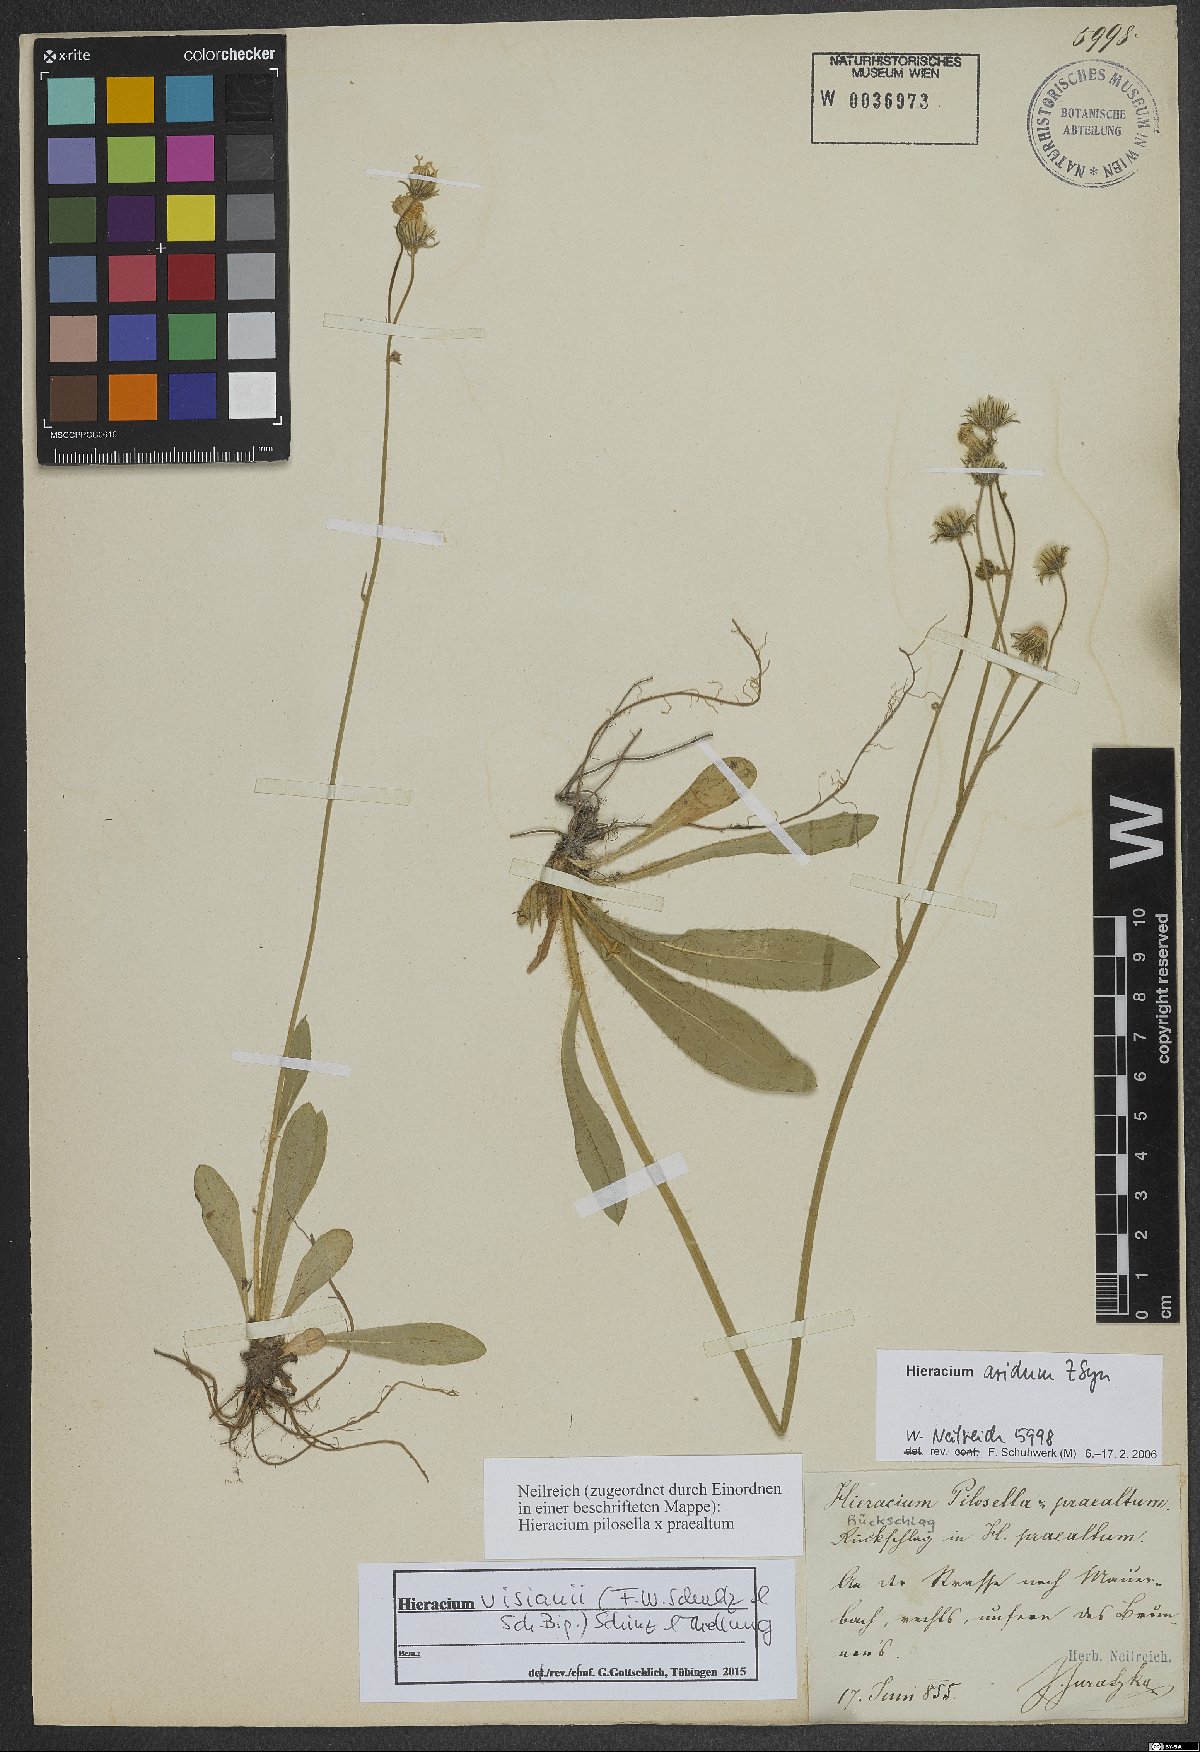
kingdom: Plantae
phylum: Tracheophyta
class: Magnoliopsida
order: Asterales
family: Asteraceae
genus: Pilosella
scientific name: Pilosella visianii
